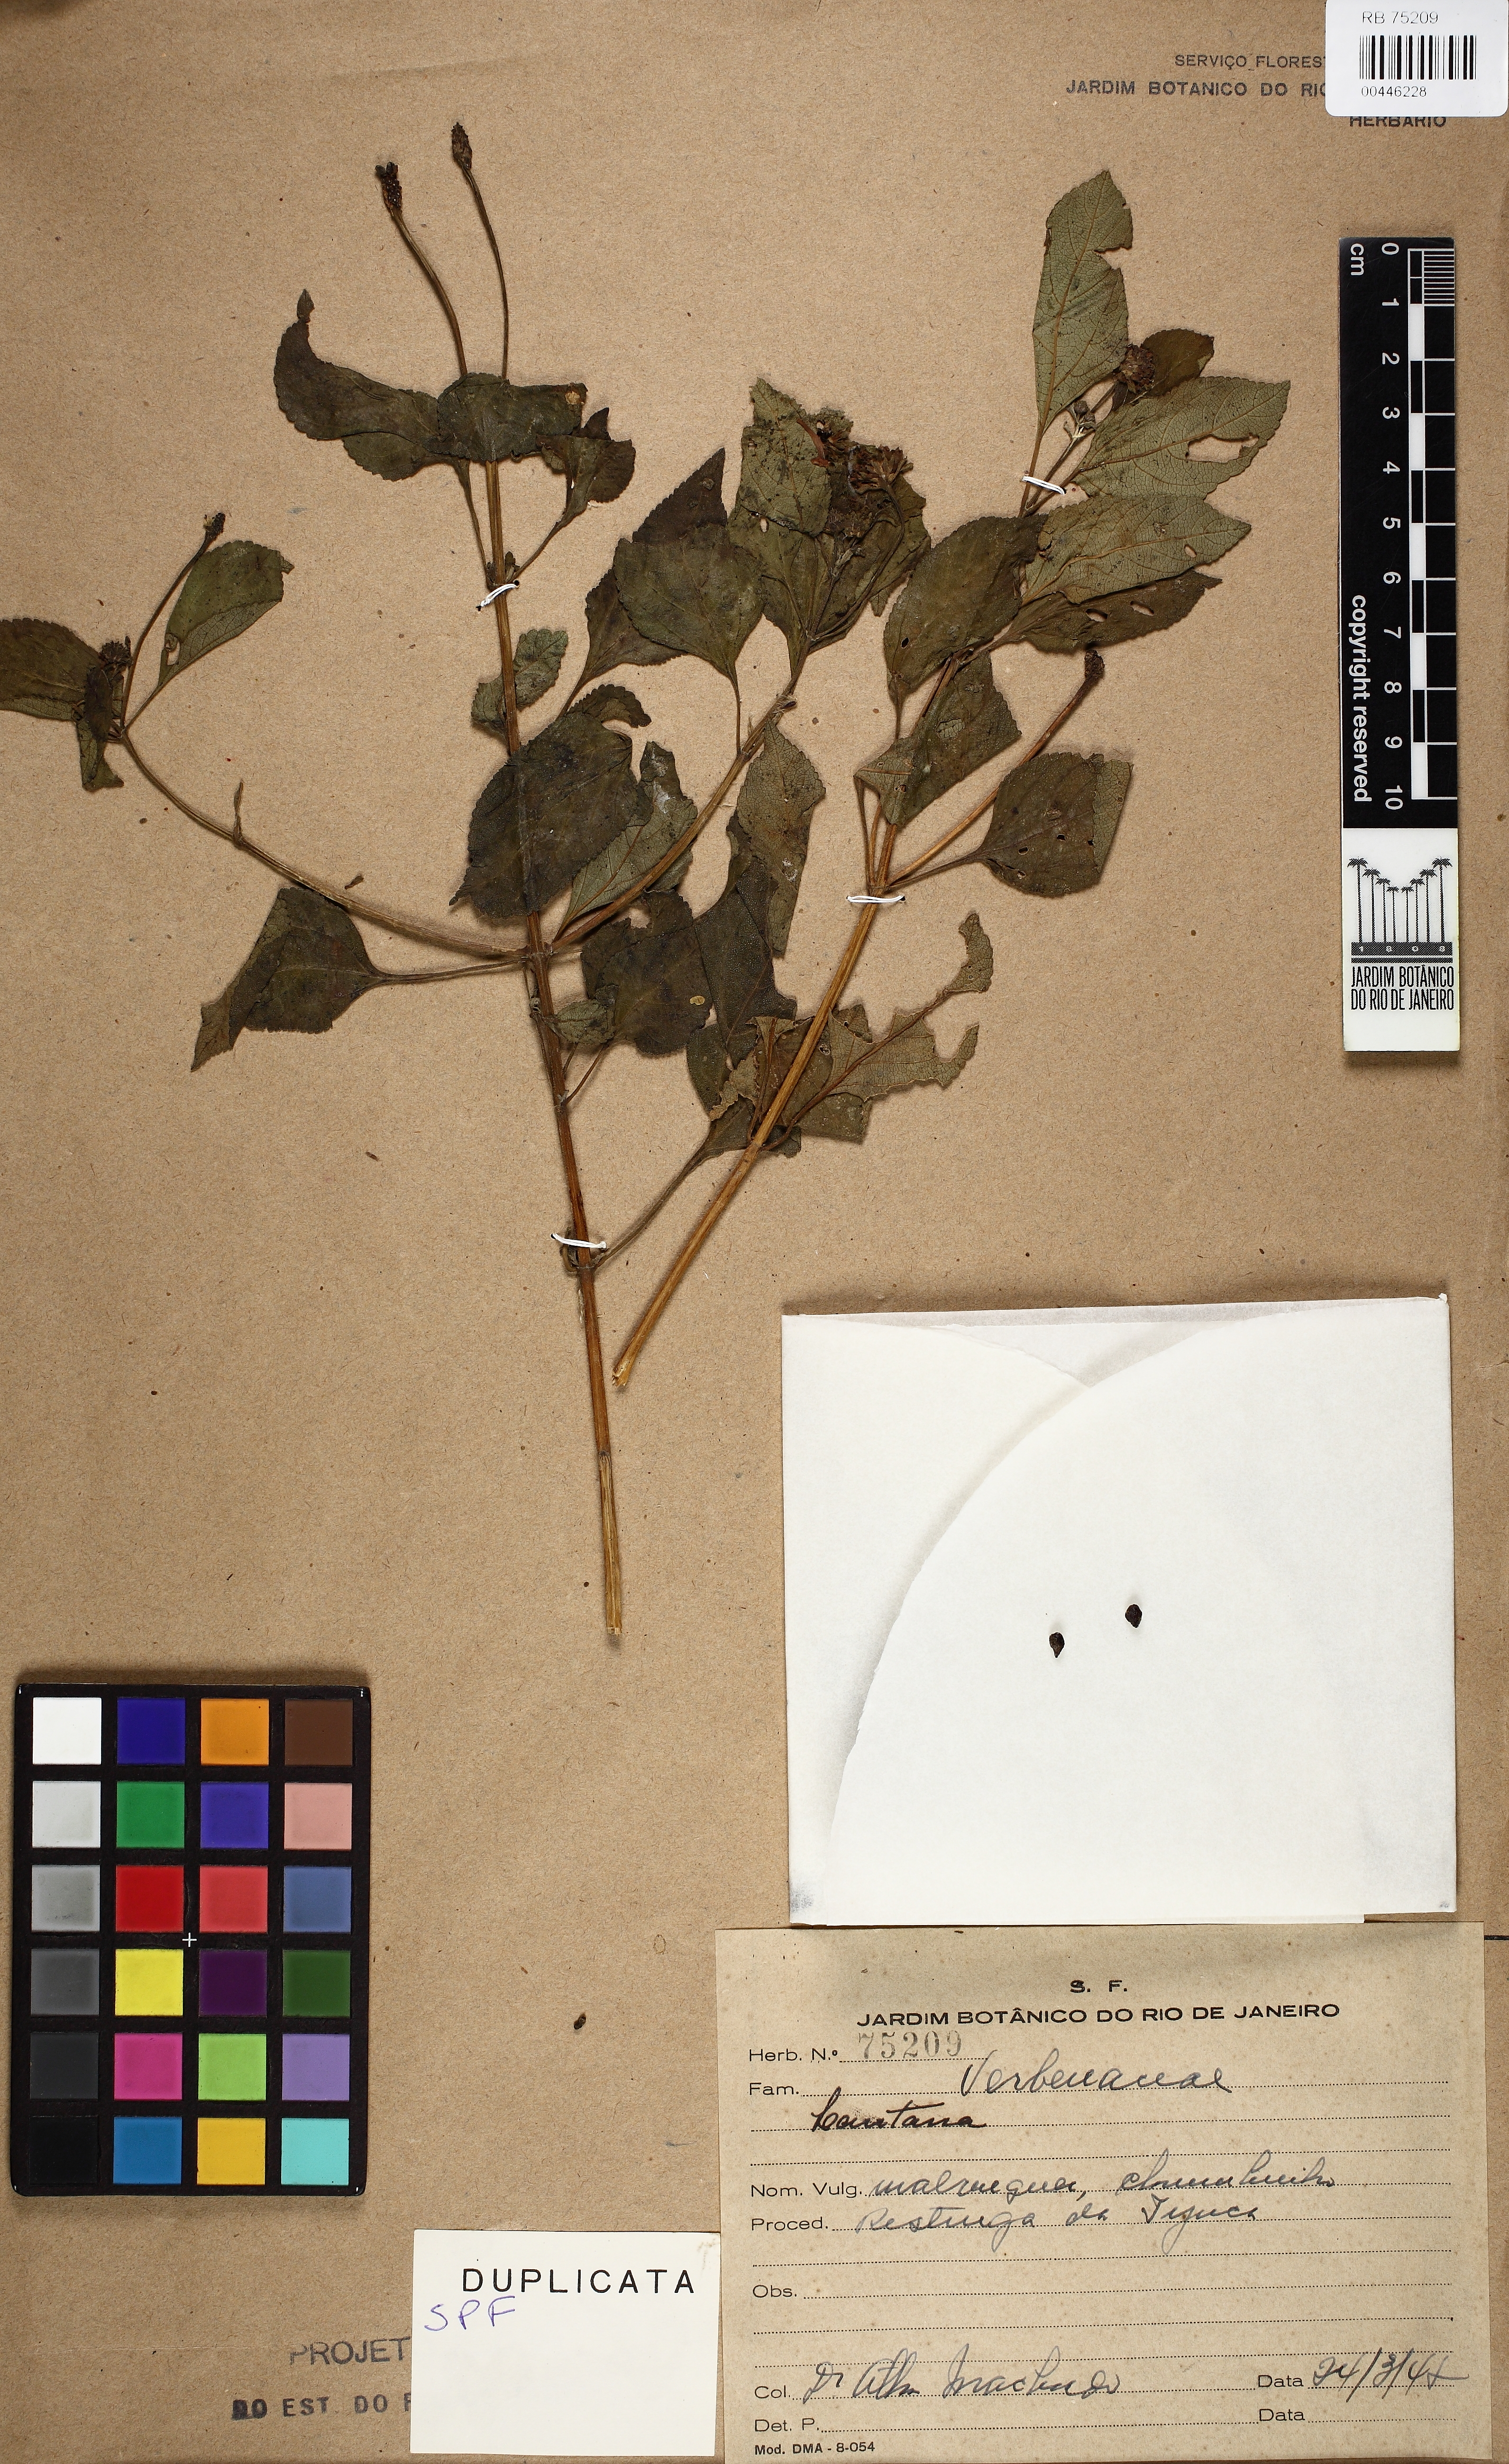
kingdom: Plantae
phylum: Tracheophyta
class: Magnoliopsida
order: Lamiales
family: Verbenaceae
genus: Lantana
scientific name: Lantana
